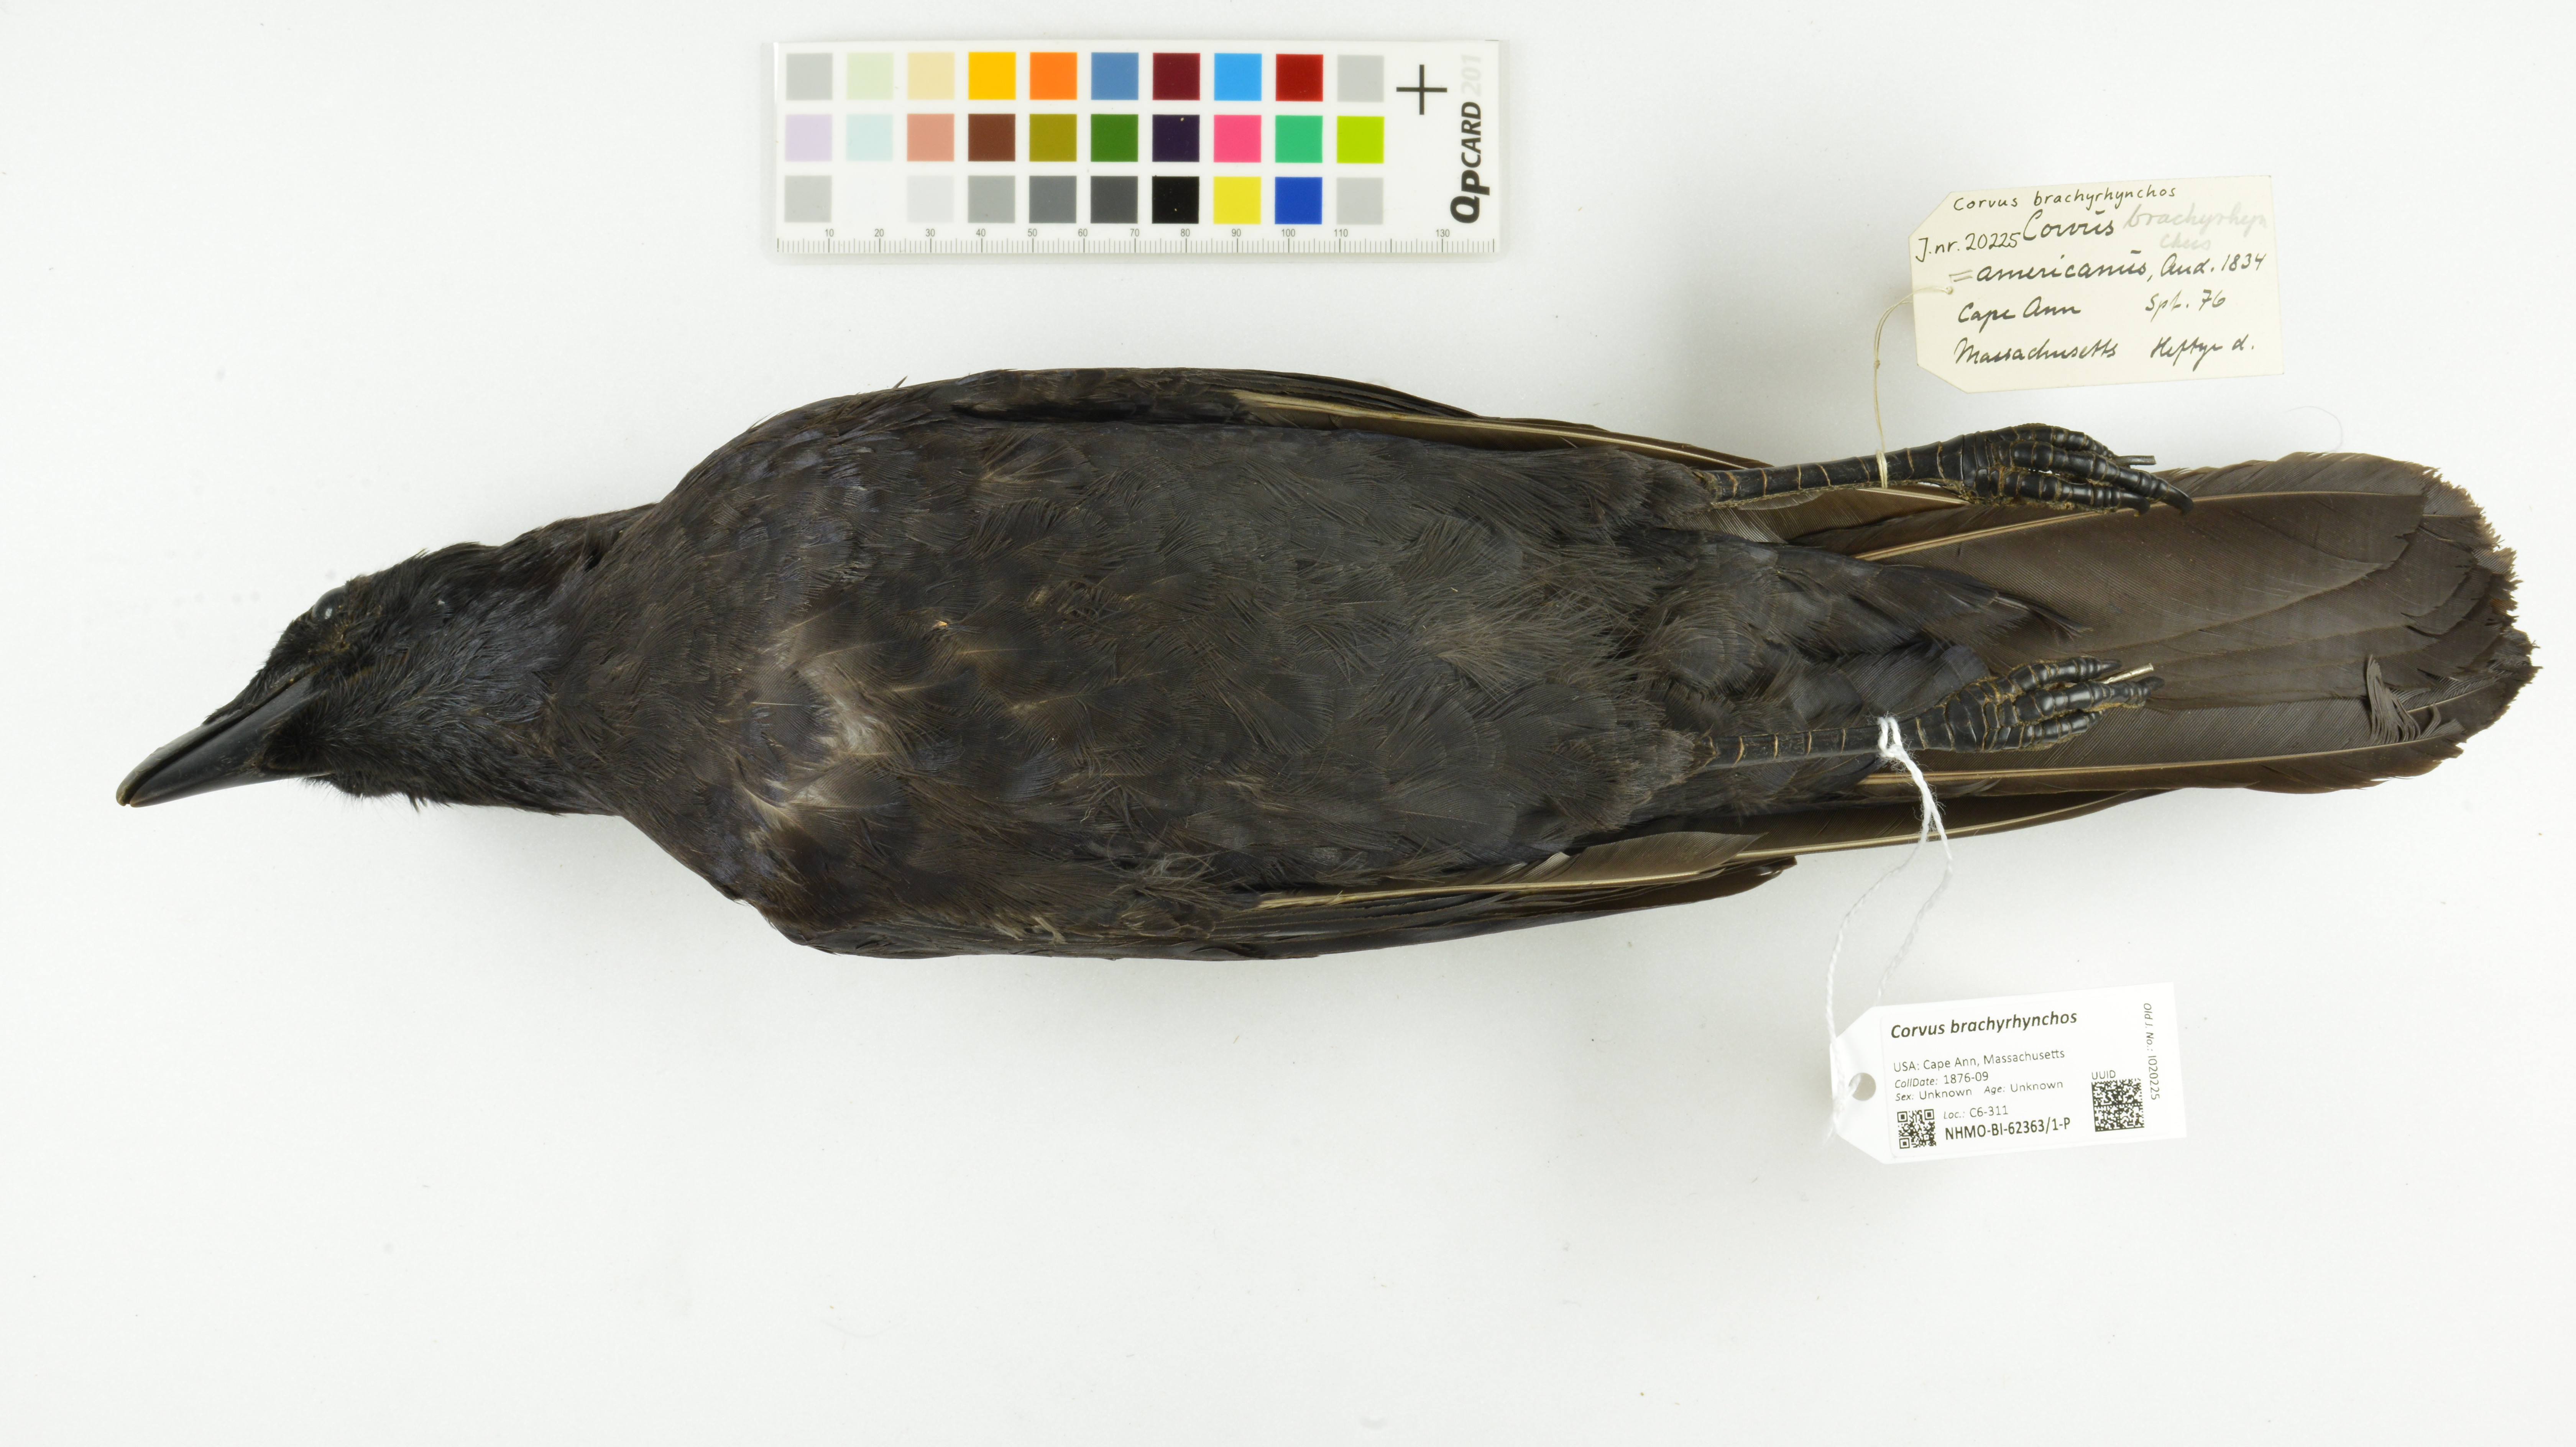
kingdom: Animalia
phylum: Chordata
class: Aves
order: Passeriformes
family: Corvidae
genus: Corvus
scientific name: Corvus brachyrhynchos
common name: American crow
